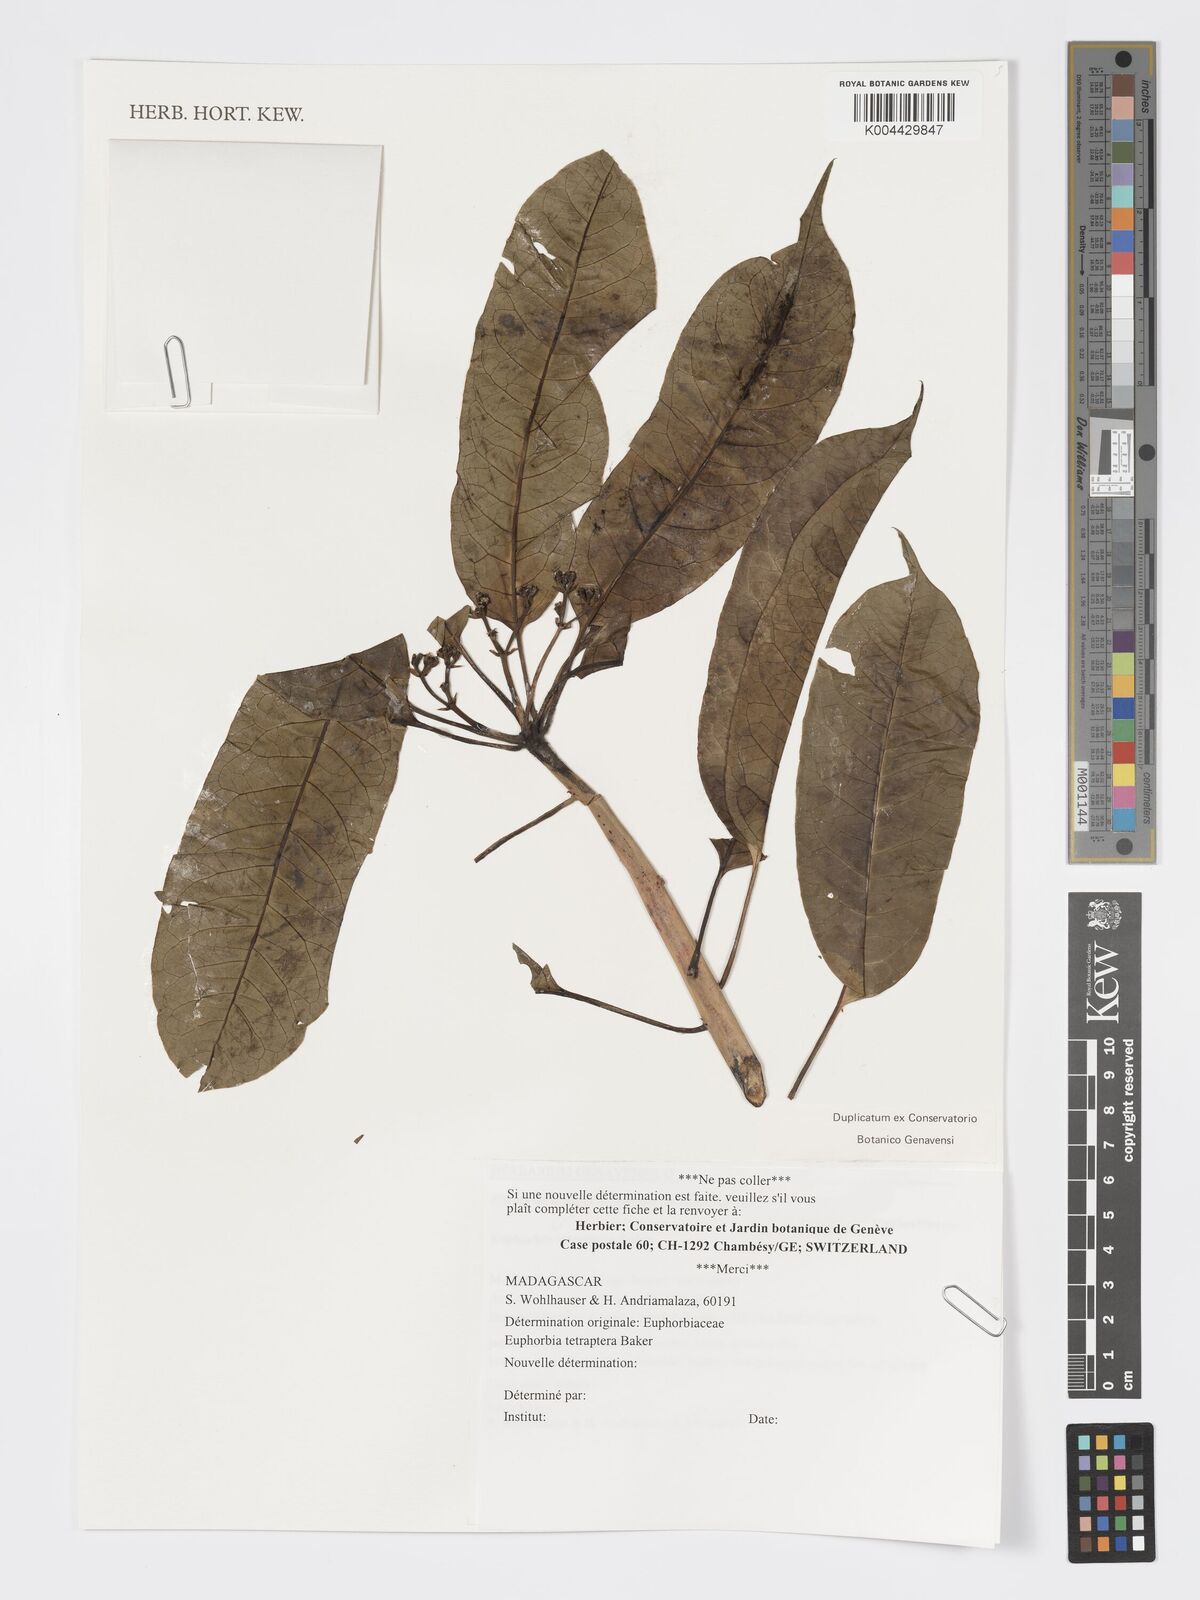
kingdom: Plantae
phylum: Tracheophyta
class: Magnoliopsida
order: Malpighiales
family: Euphorbiaceae
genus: Euphorbia
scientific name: Euphorbia tetraptera
